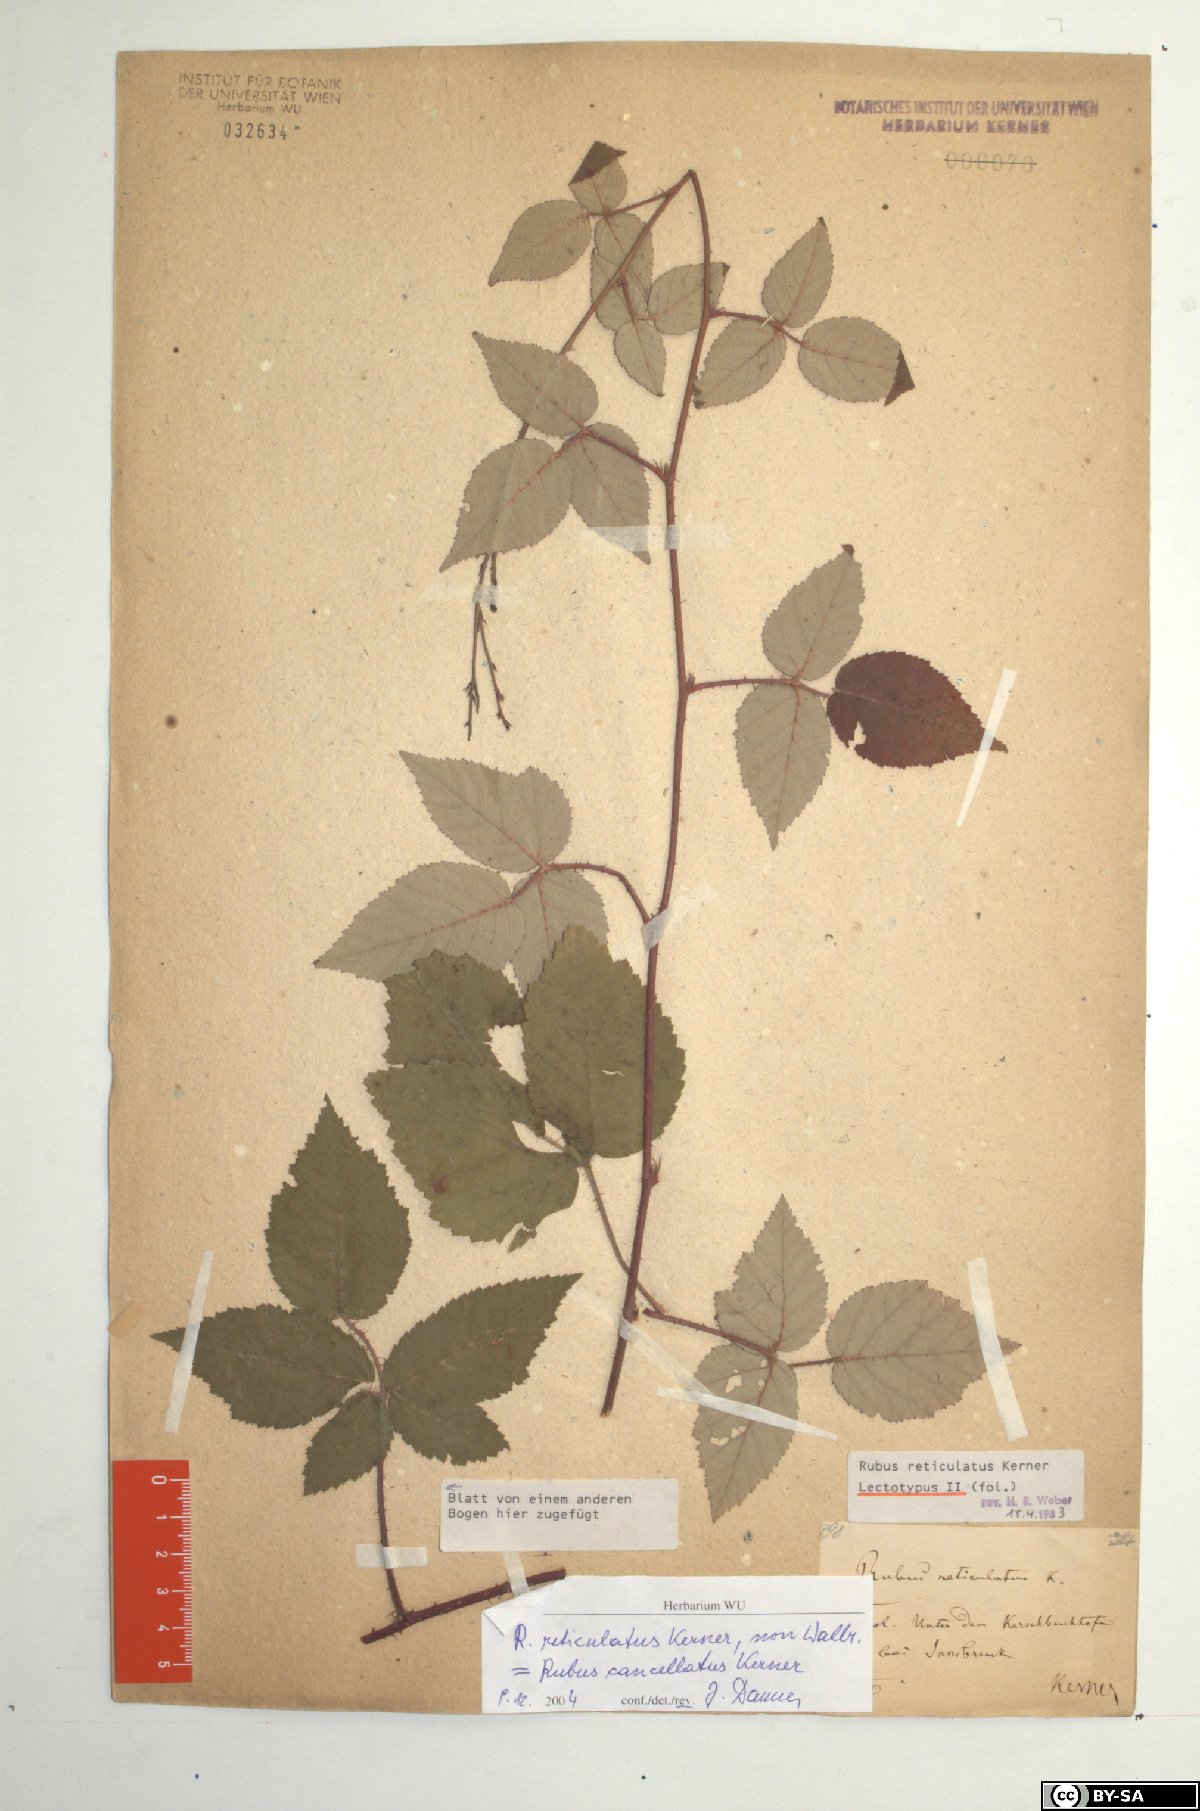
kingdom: Plantae
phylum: Tracheophyta
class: Magnoliopsida
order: Rosales
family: Rosaceae
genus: Rubus
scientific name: Rubus reticulatus
